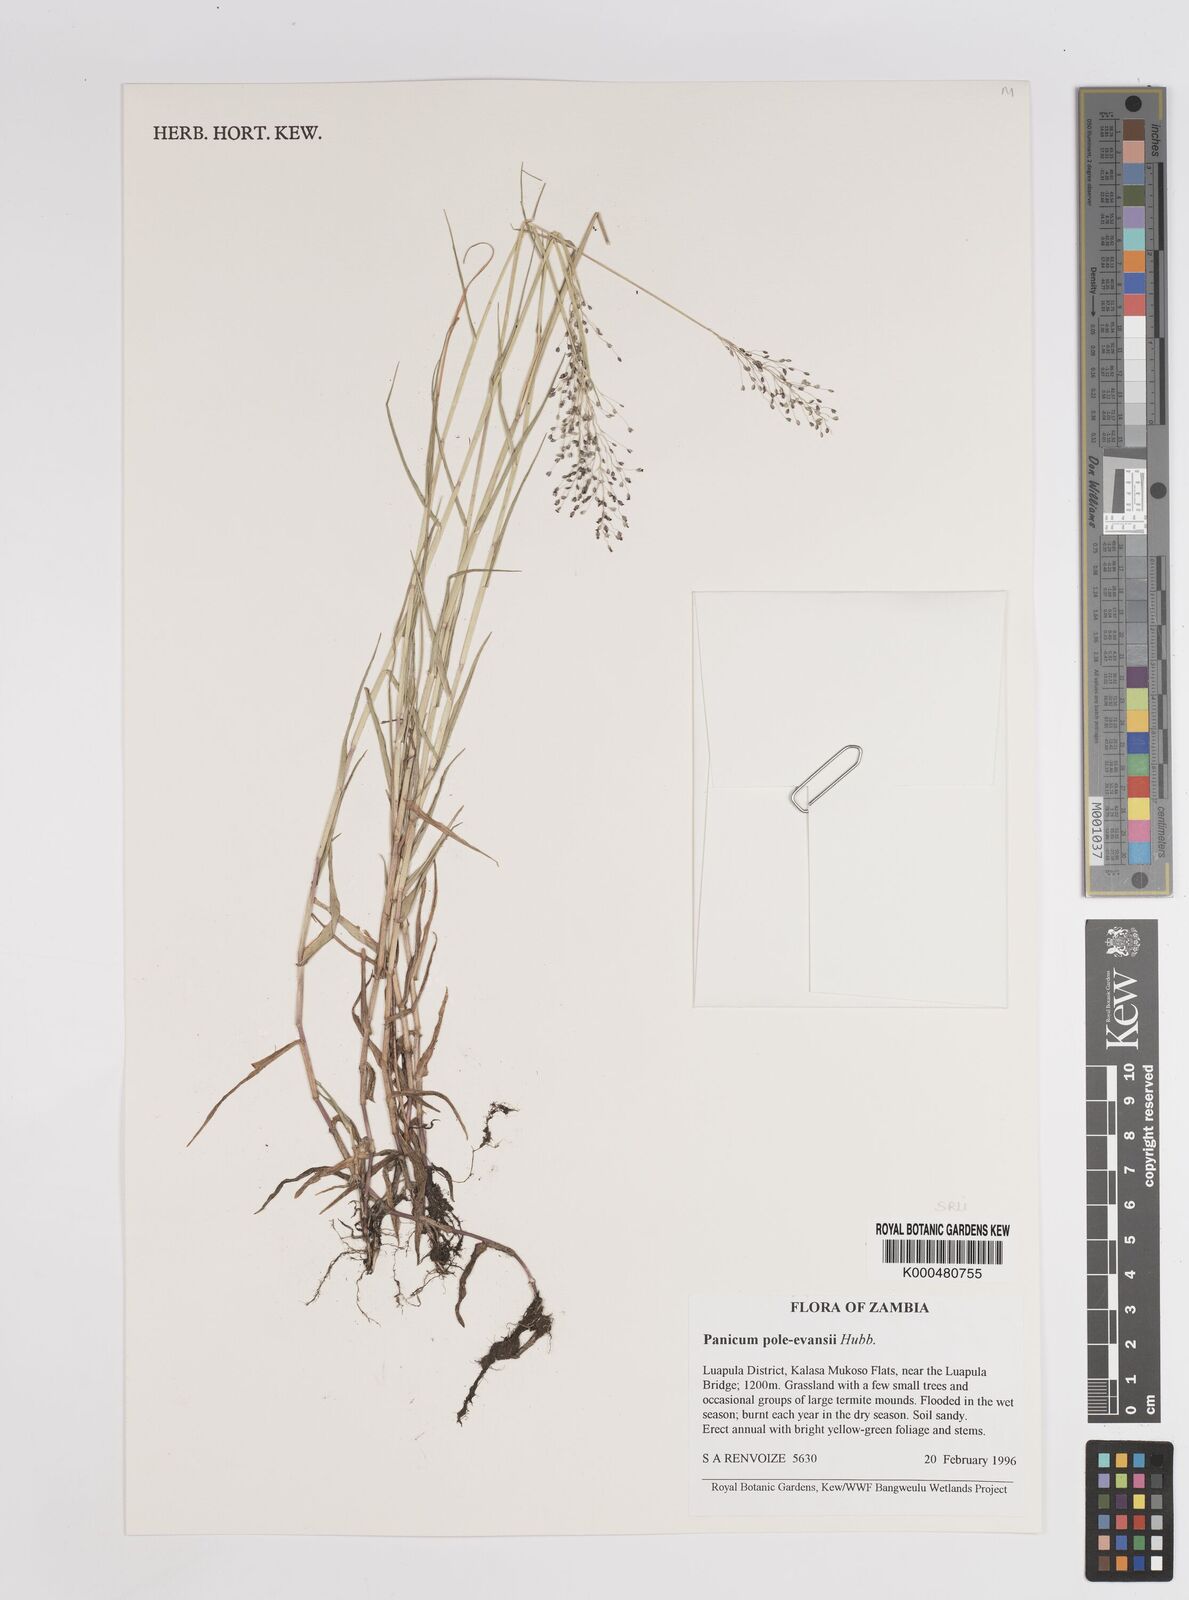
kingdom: Plantae
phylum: Tracheophyta
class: Liliopsida
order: Poales
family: Poaceae
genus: Adenochloa
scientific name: Adenochloa pole-evansii
